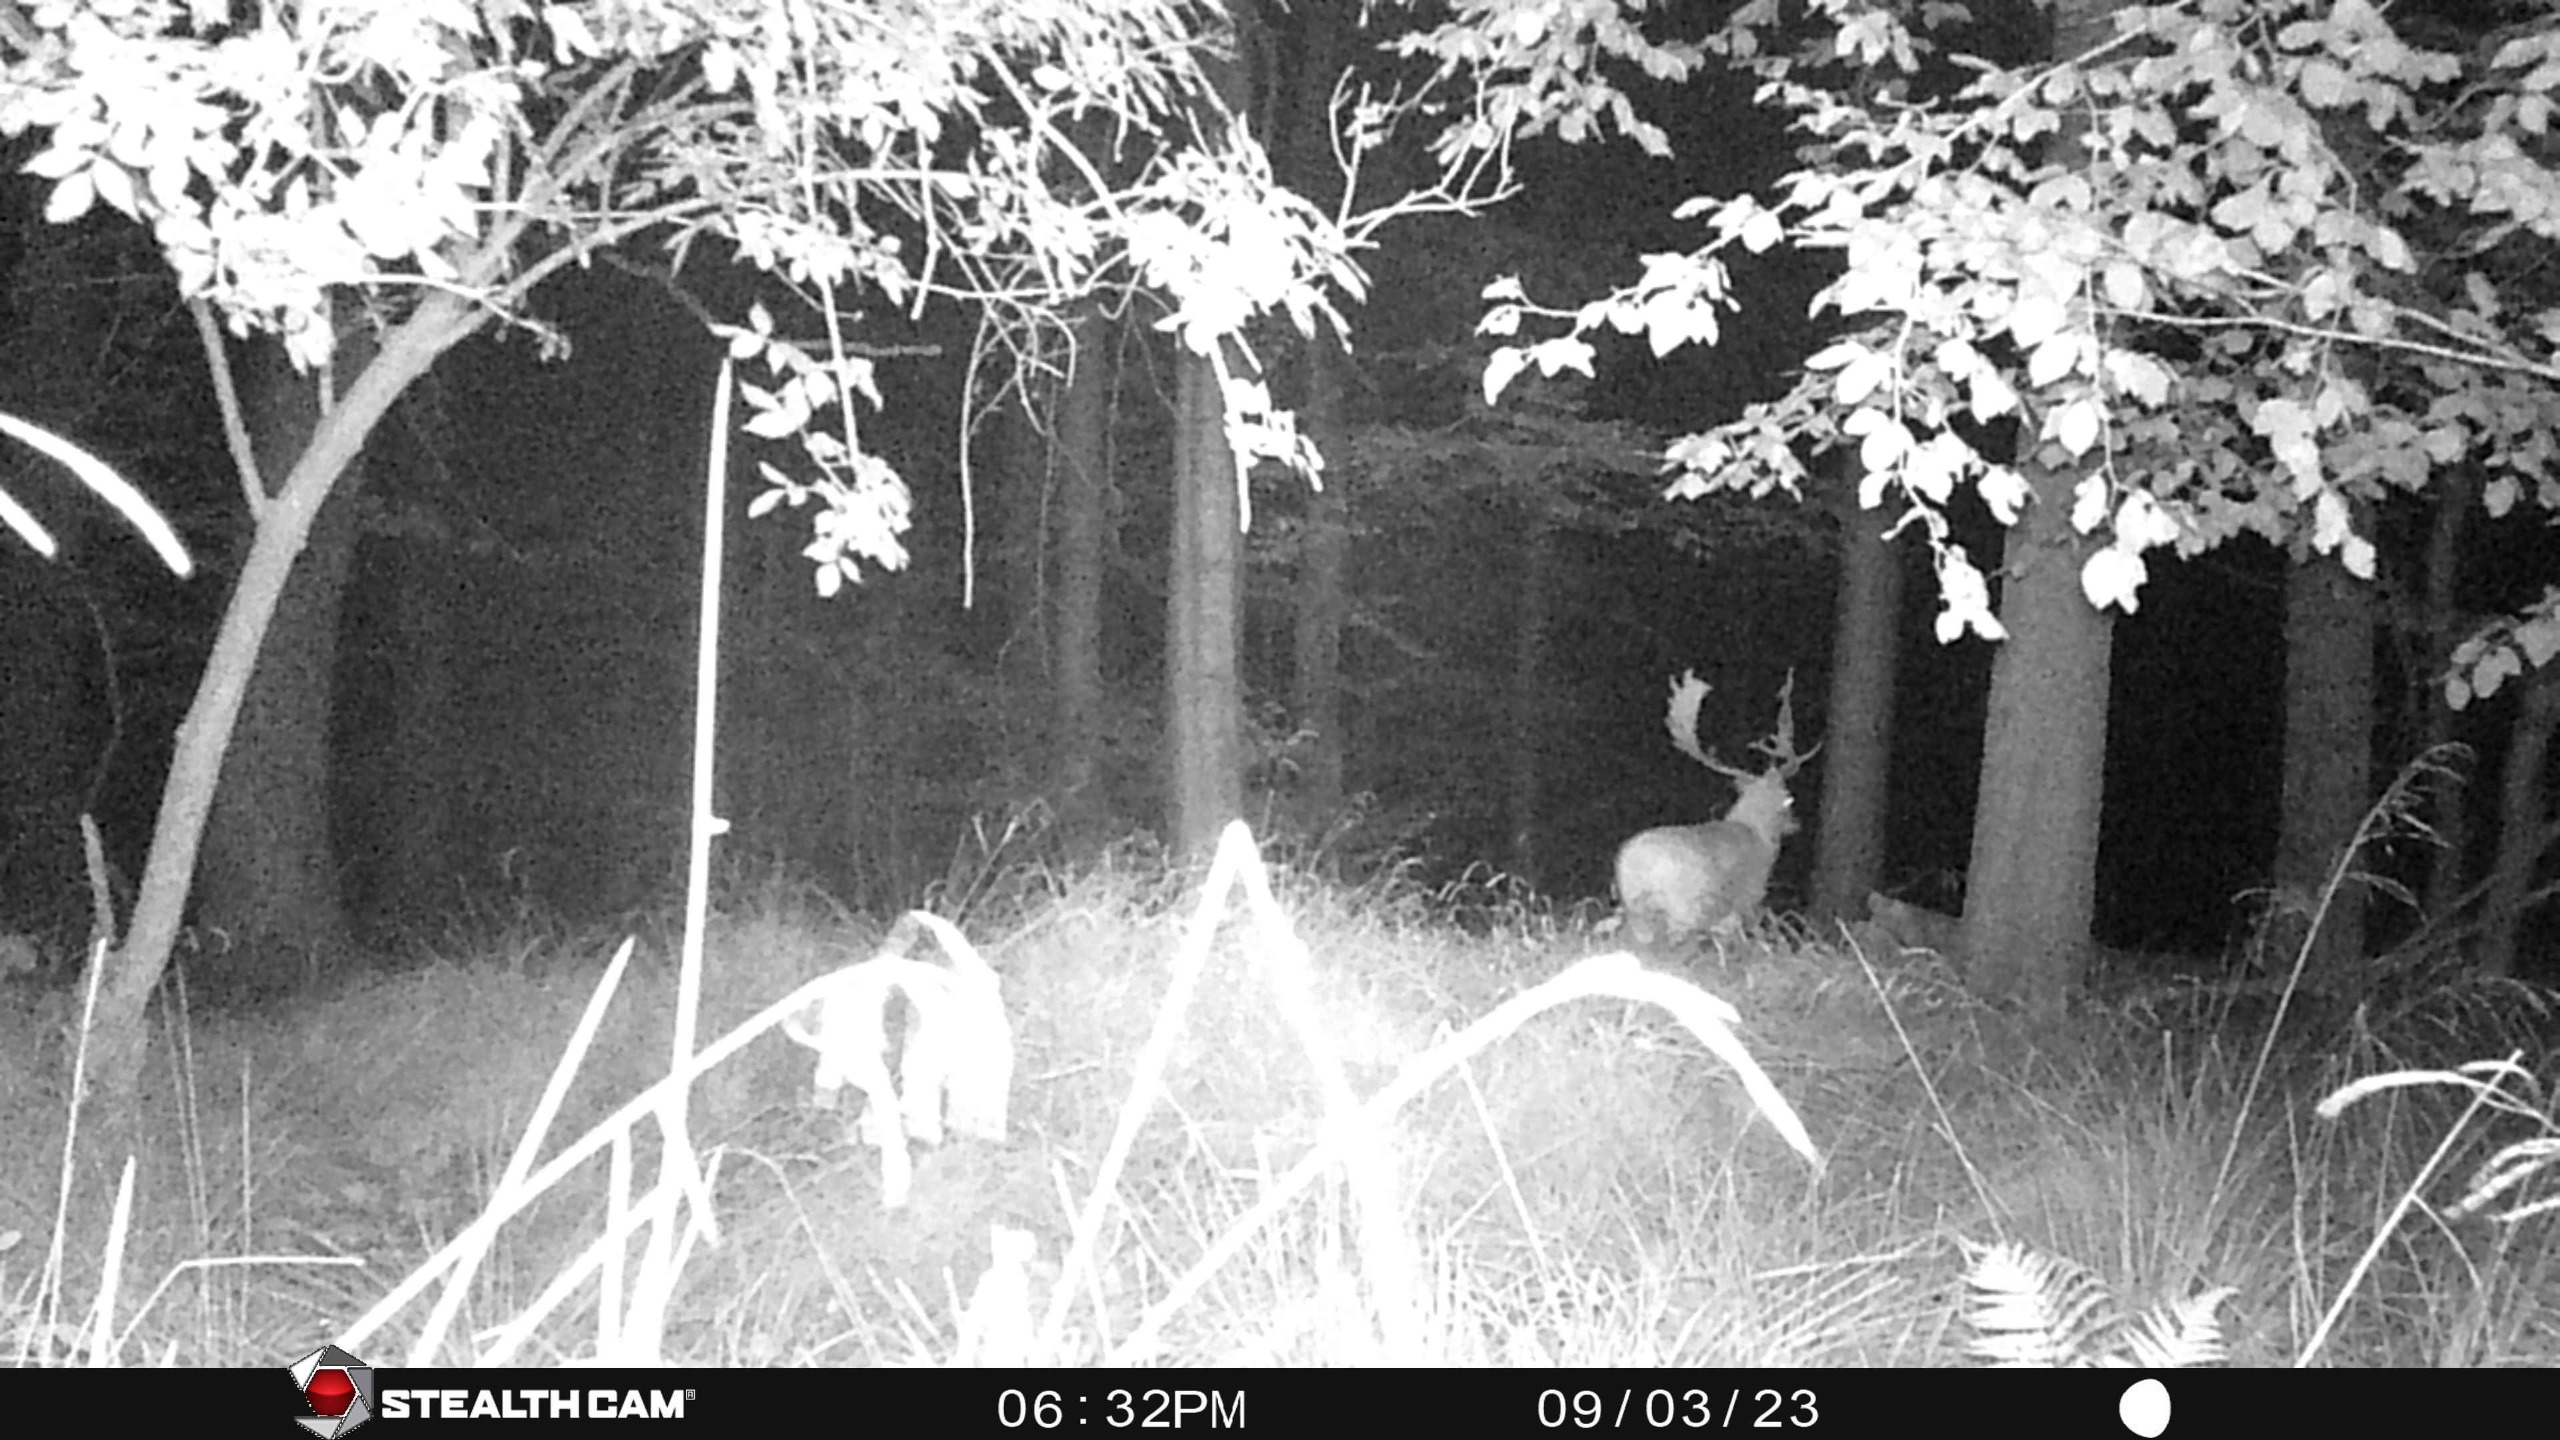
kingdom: Animalia
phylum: Chordata
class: Mammalia
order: Artiodactyla
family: Cervidae
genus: Dama
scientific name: Dama dama
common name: Dådyr
